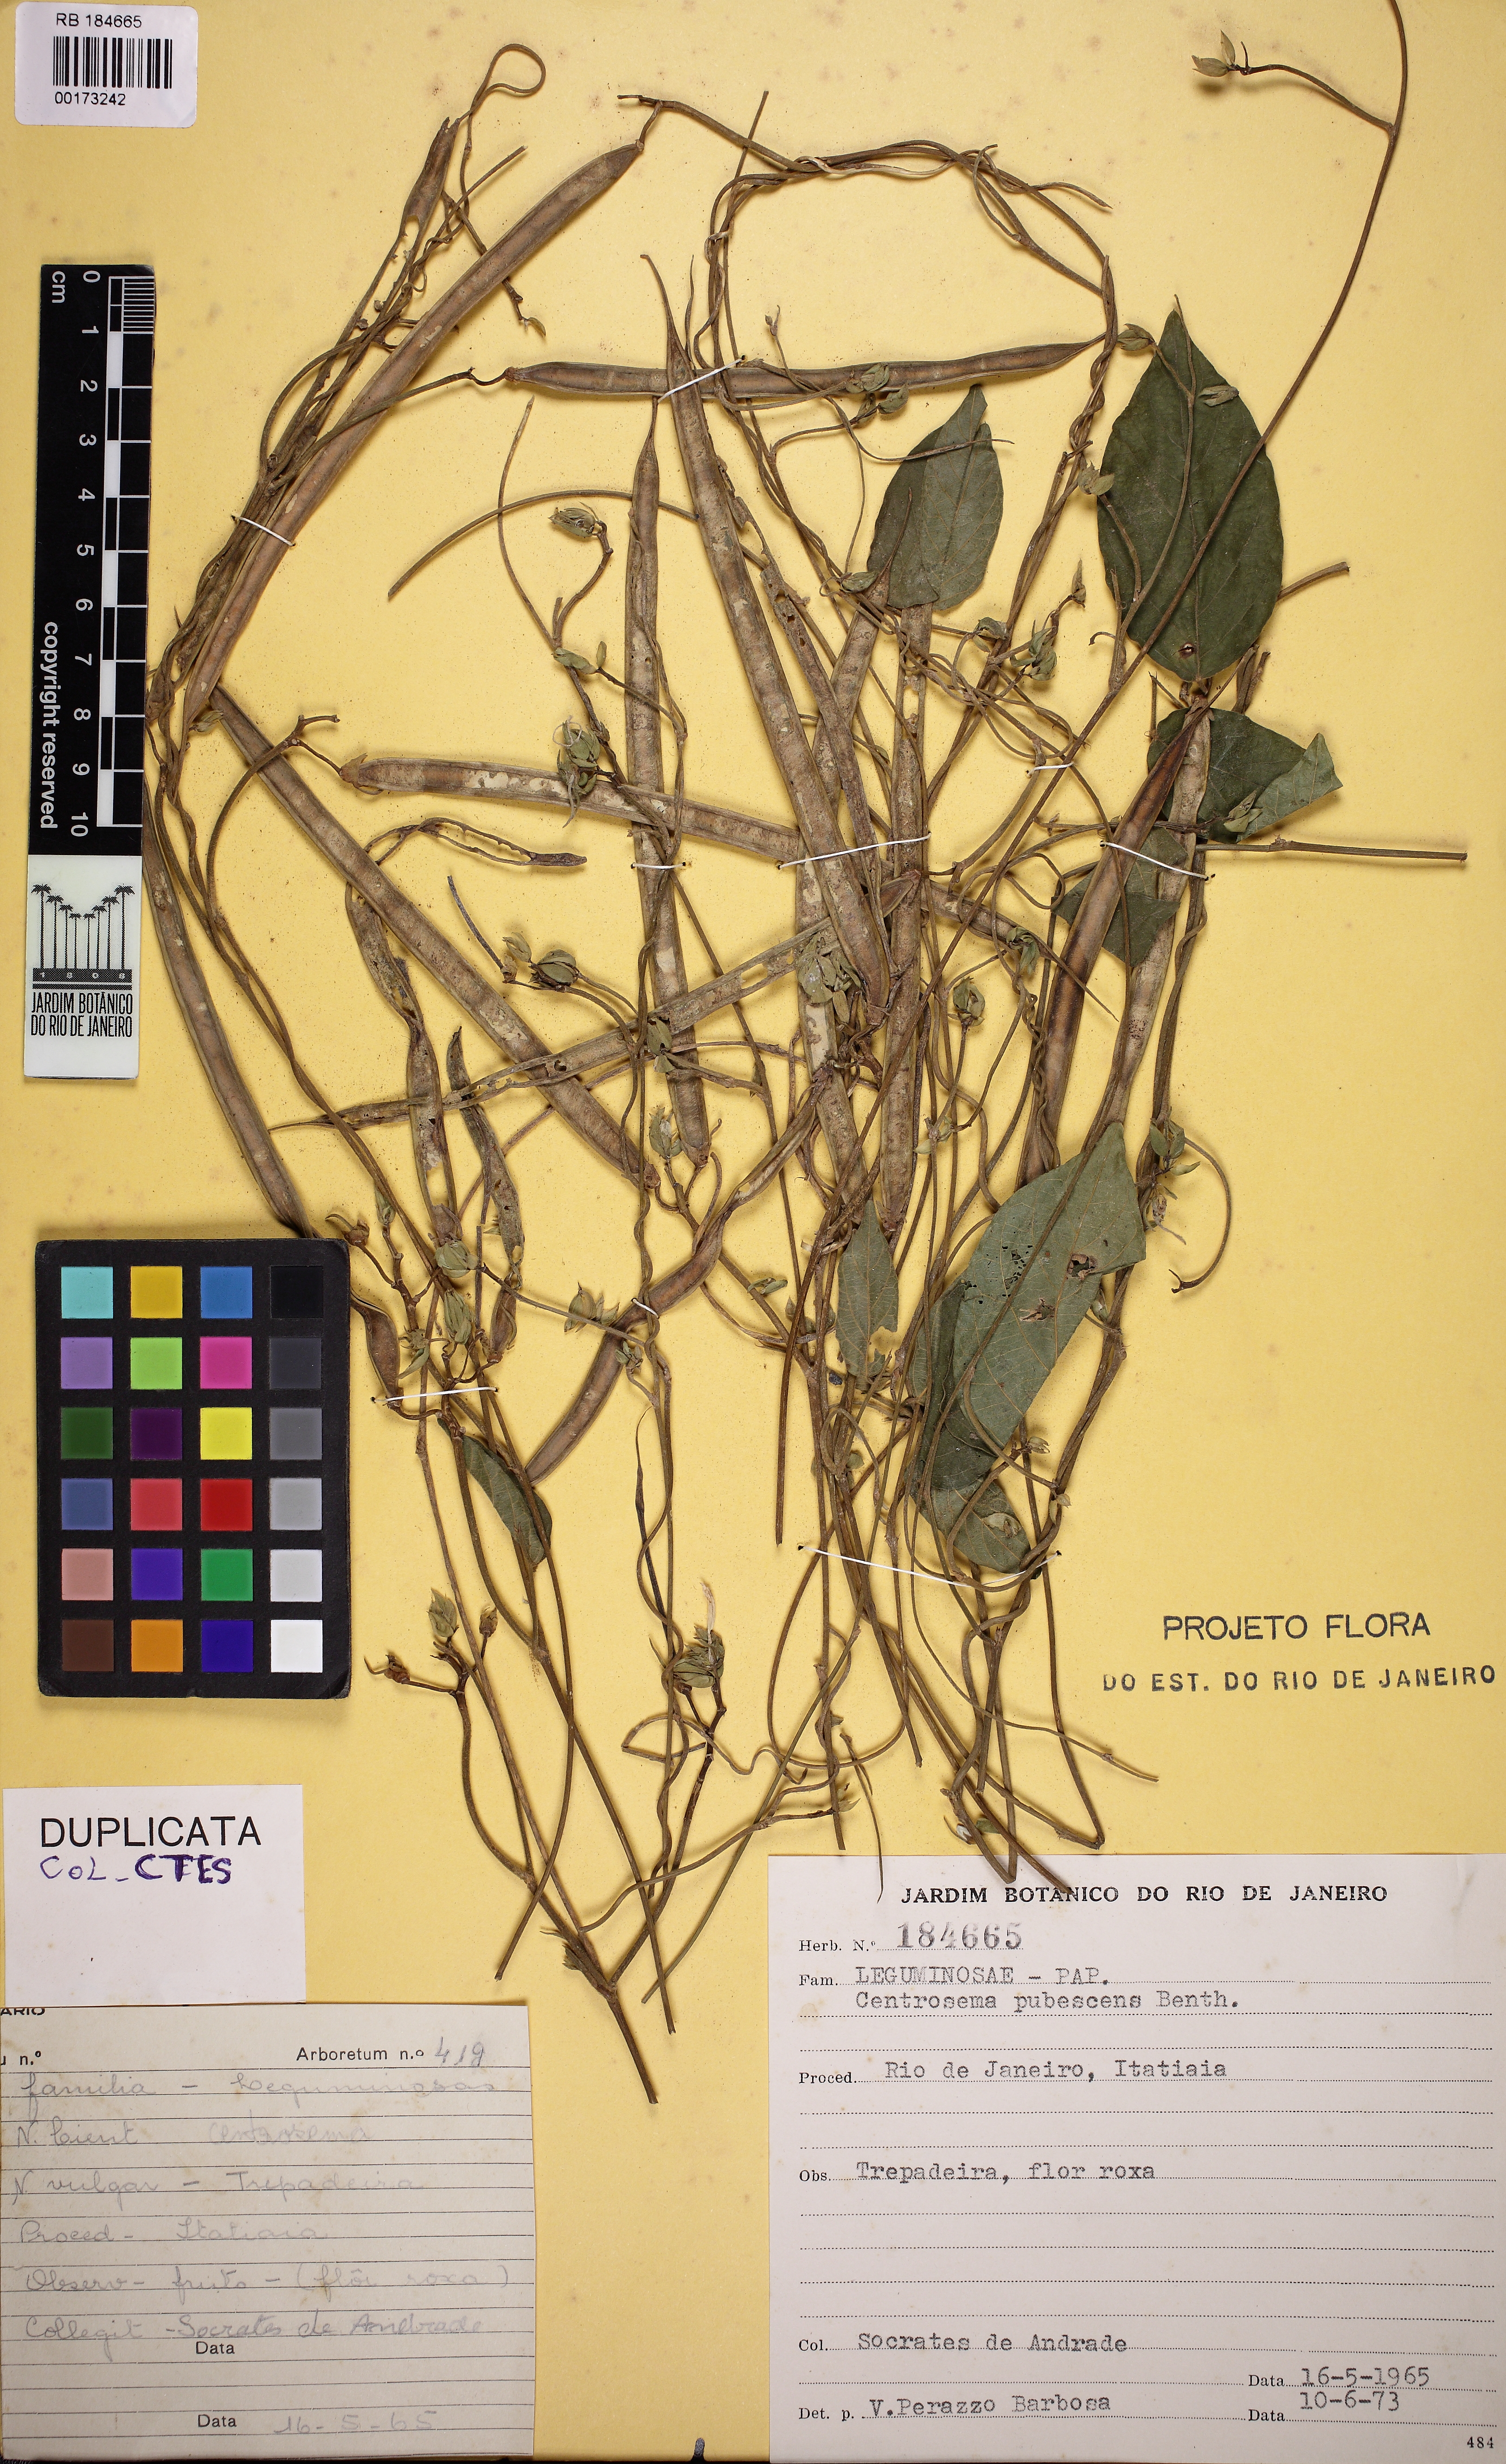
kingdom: Plantae
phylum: Tracheophyta
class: Magnoliopsida
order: Fabales
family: Fabaceae
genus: Centrosema
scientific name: Centrosema pubescens
